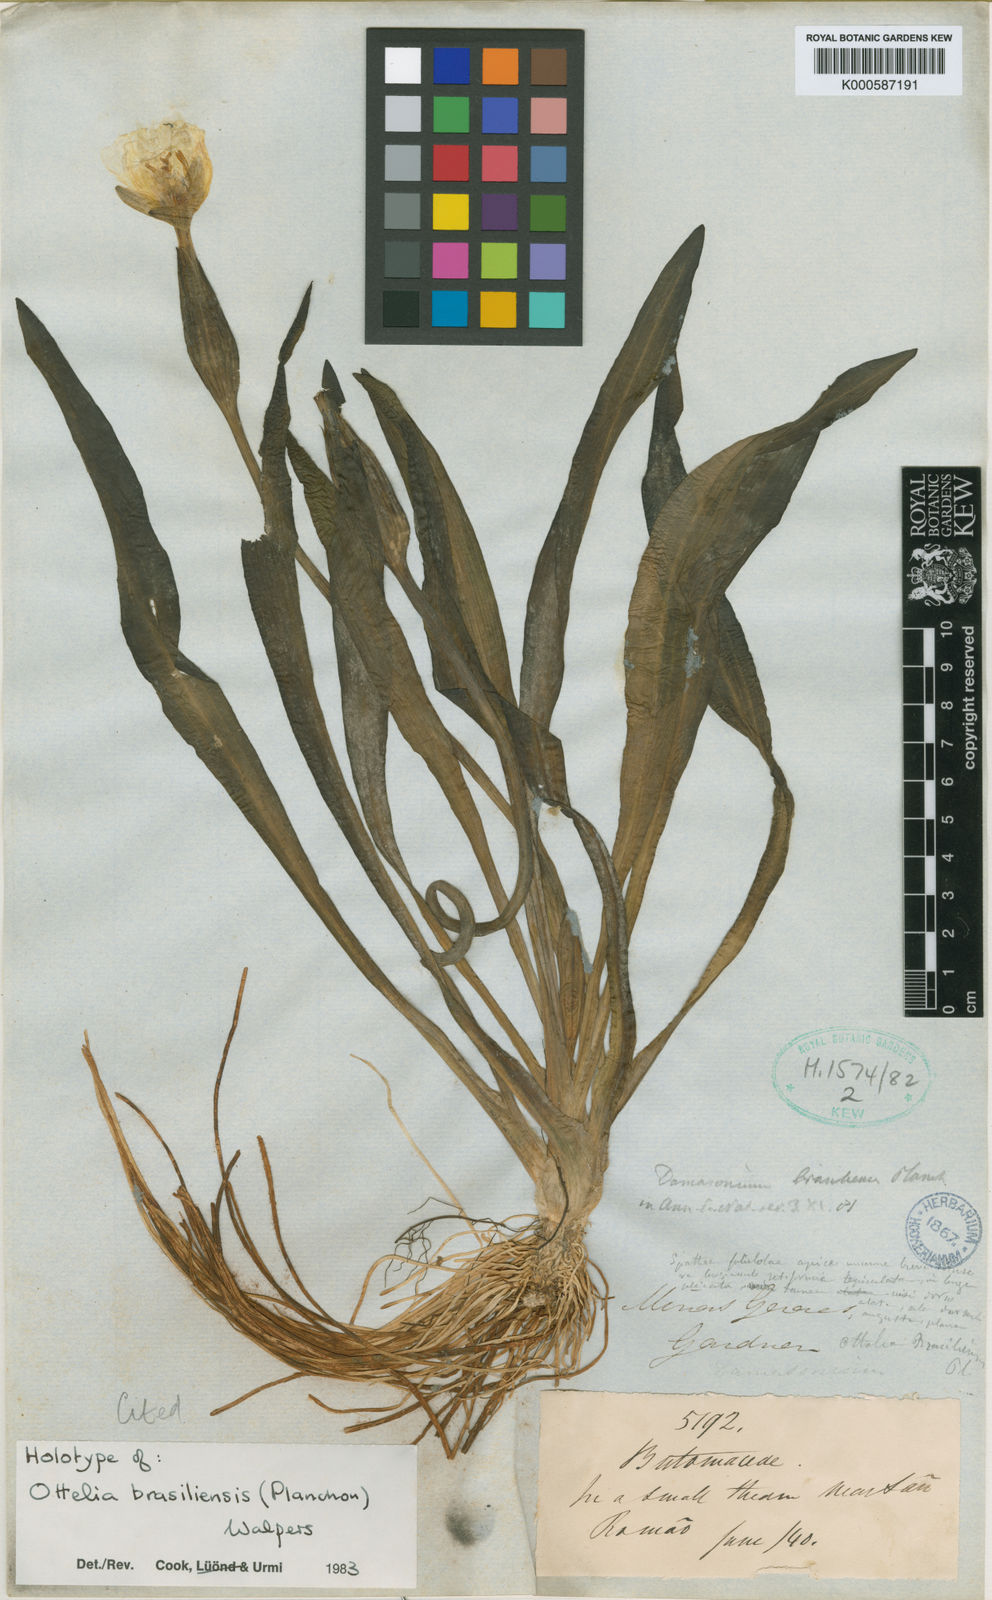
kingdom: Plantae
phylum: Tracheophyta
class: Liliopsida
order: Alismatales
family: Hydrocharitaceae
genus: Ottelia
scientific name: Ottelia brasiliensis
